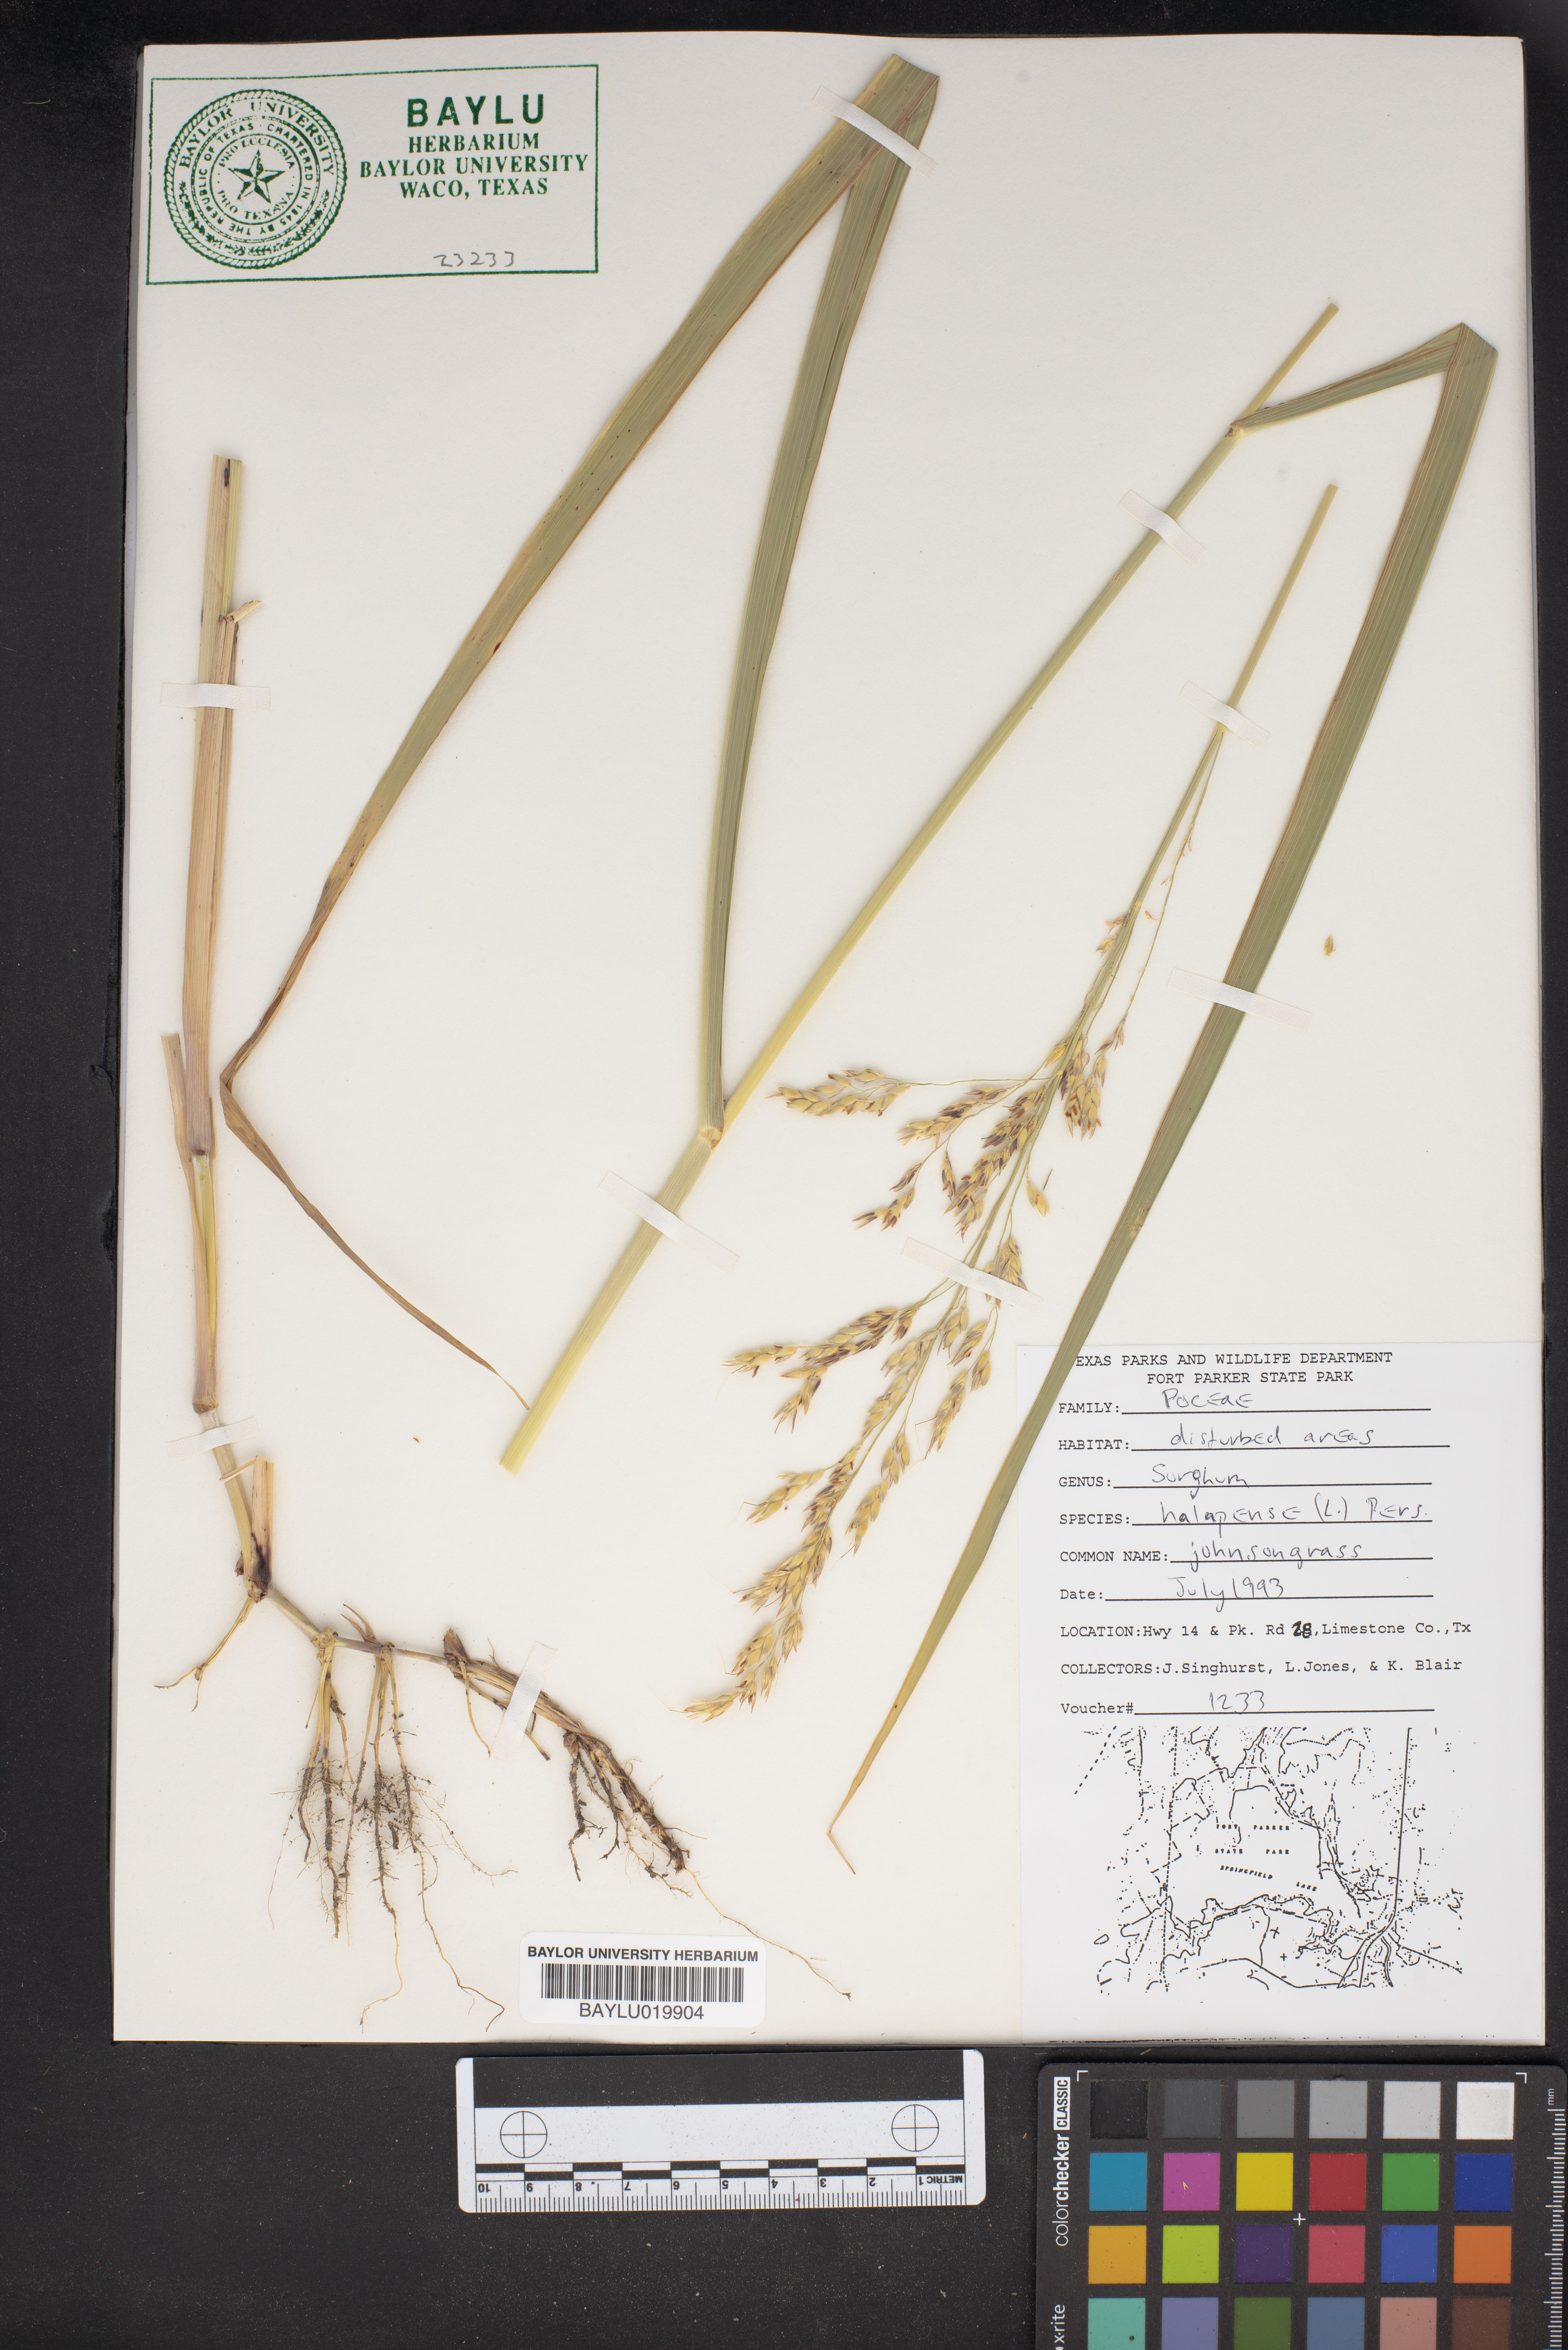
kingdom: Plantae
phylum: Tracheophyta
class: Liliopsida
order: Poales
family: Poaceae
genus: Sorghum
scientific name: Sorghum halepense
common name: Johnson-grass
